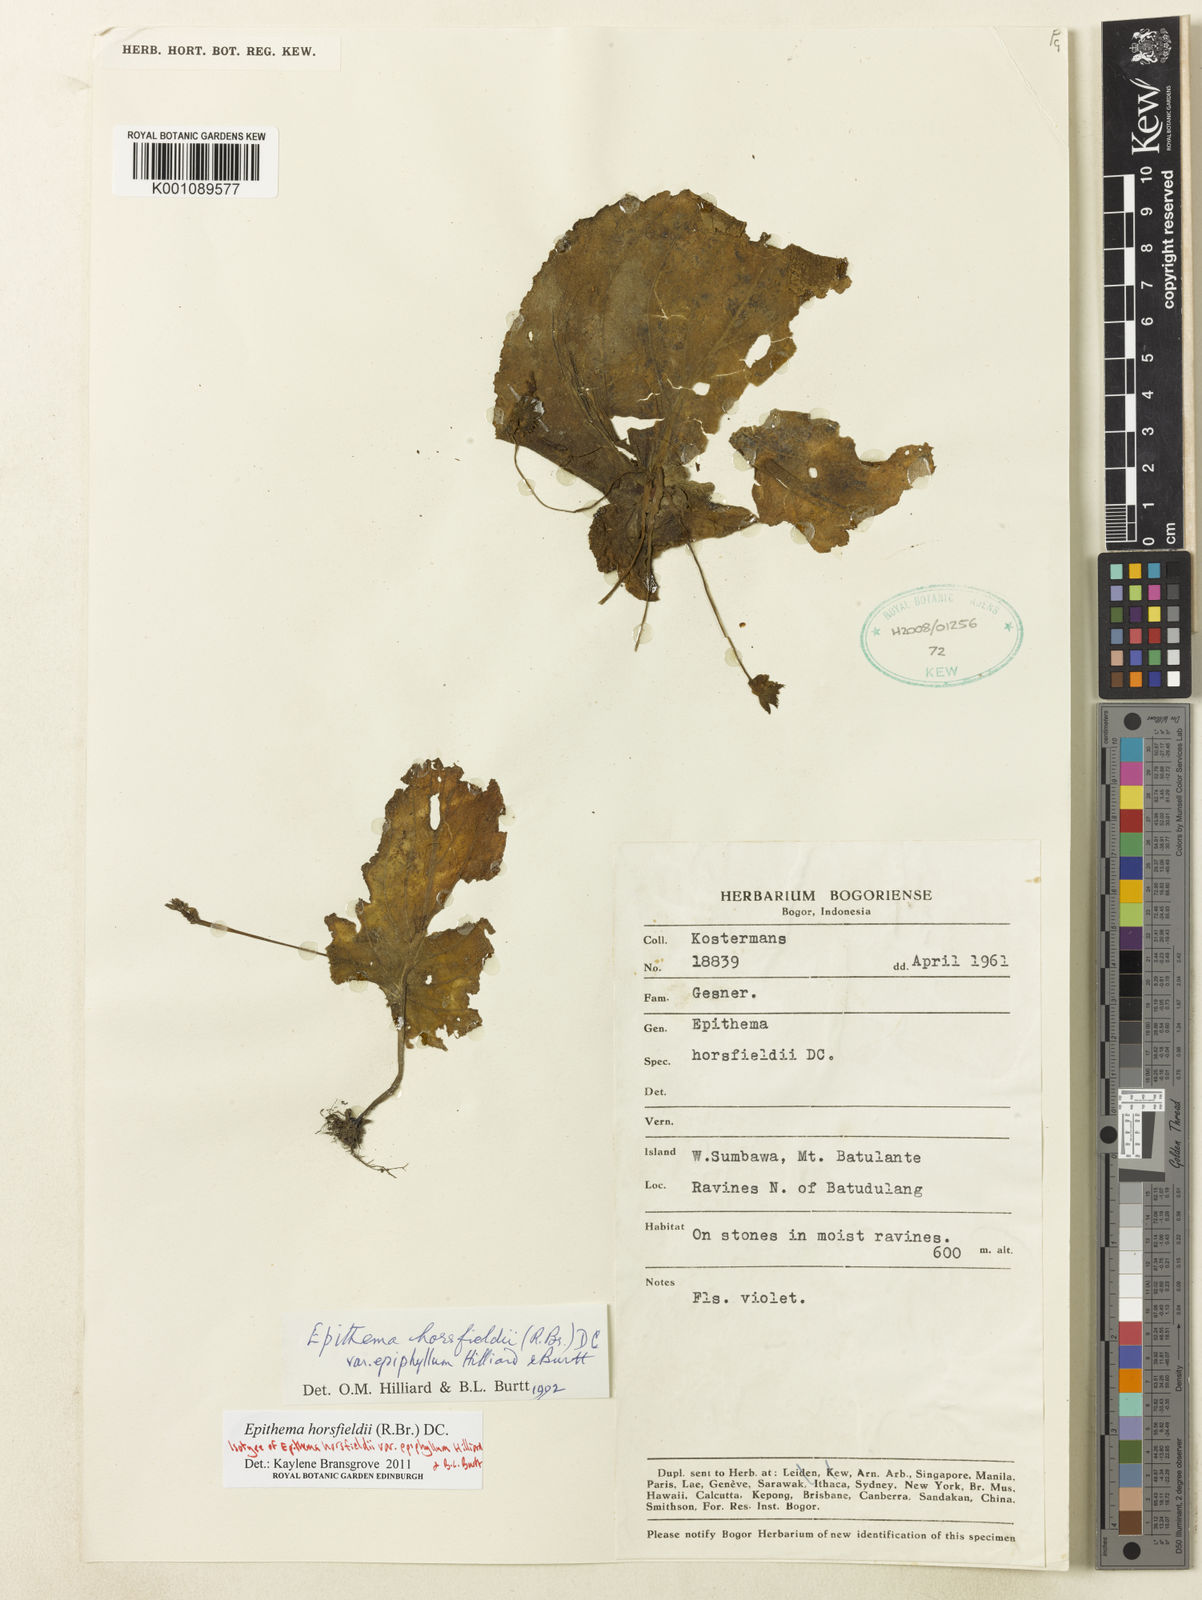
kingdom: Plantae
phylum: Tracheophyta
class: Magnoliopsida
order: Lamiales
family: Gesneriaceae
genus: Epithema
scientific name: Epithema horsfieldii
